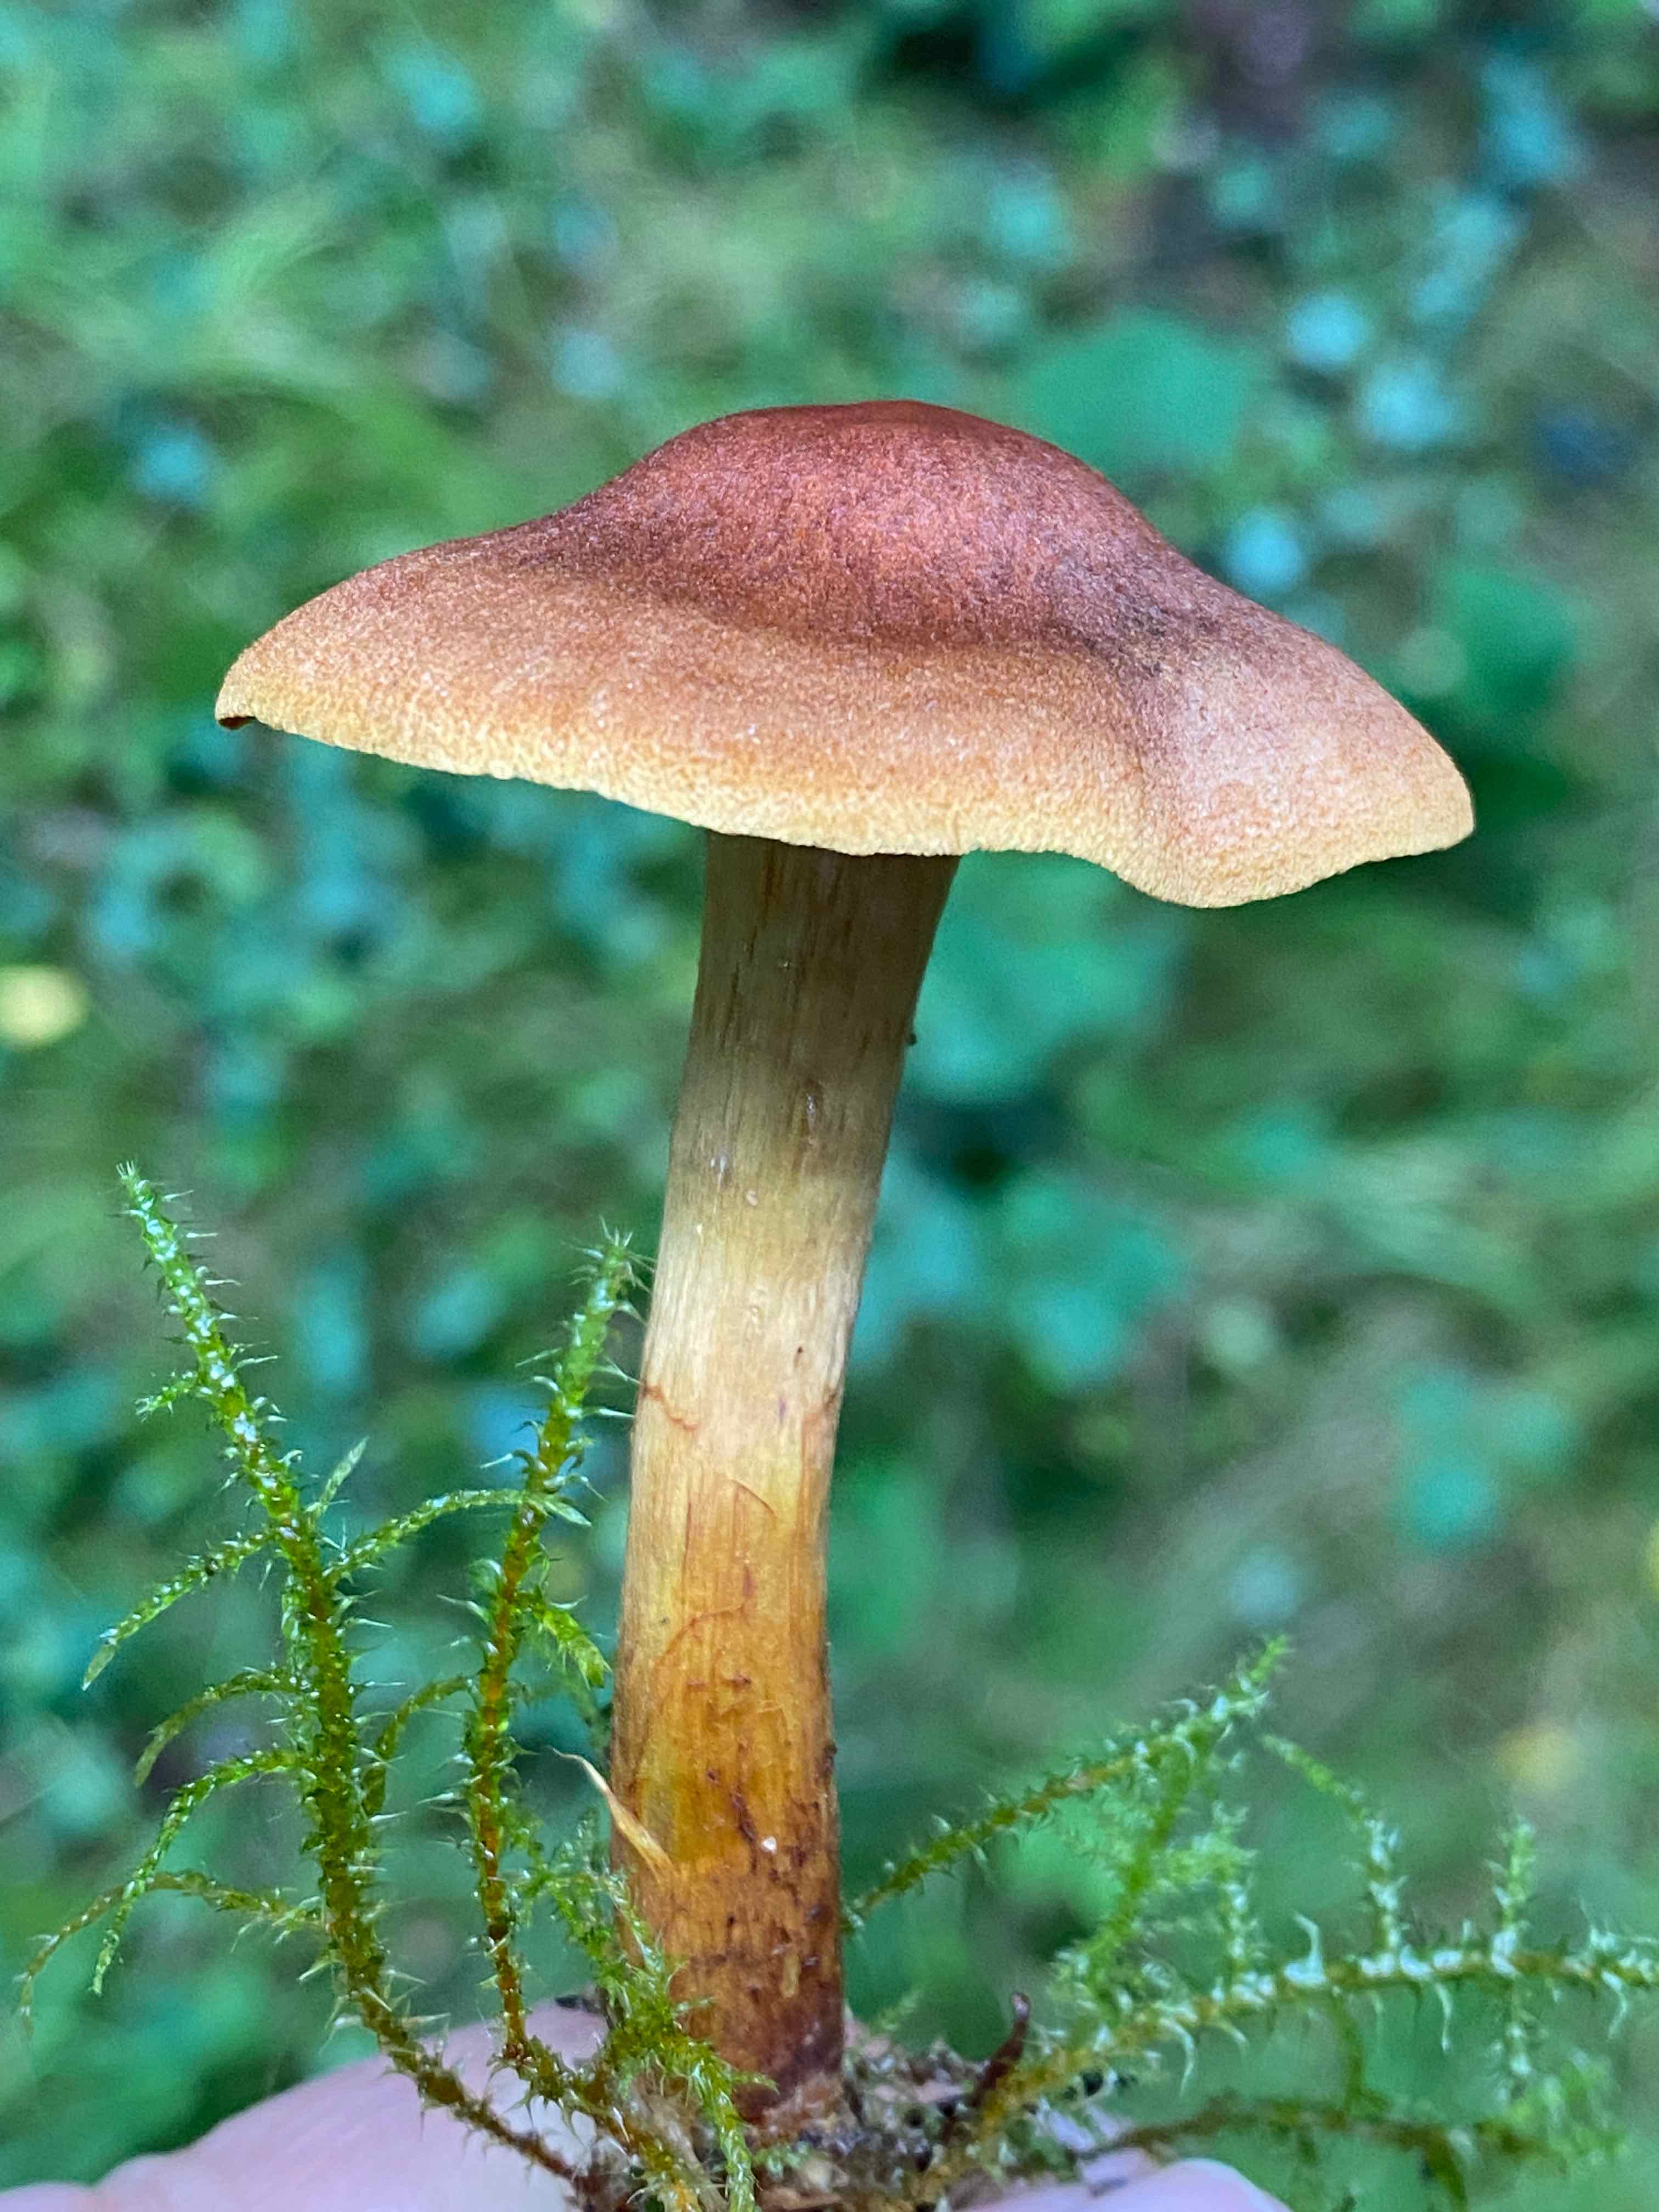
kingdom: Fungi
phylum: Basidiomycota
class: Agaricomycetes
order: Agaricales
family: Cortinariaceae
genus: Cortinarius
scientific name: Cortinarius cinnamomeus
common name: kanel-slørhat
